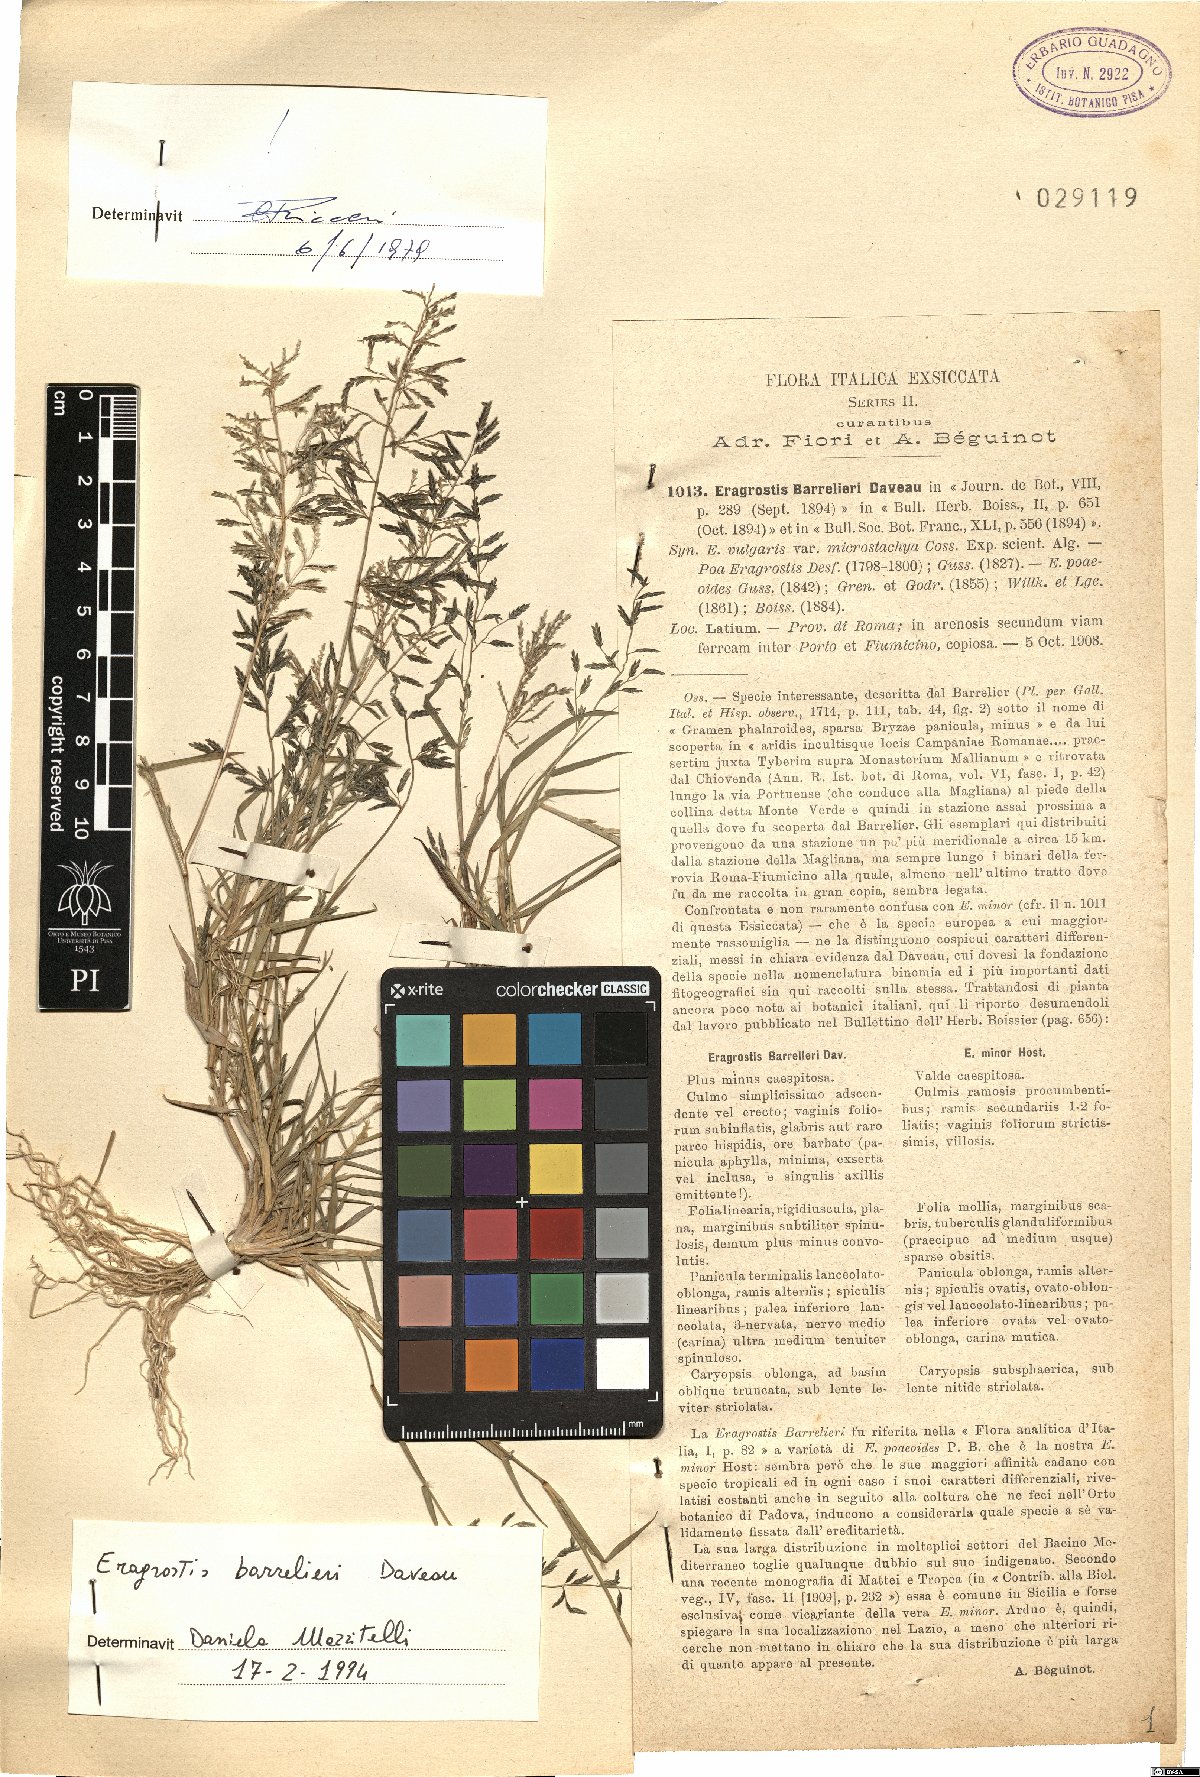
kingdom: Plantae
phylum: Tracheophyta
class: Liliopsida
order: Poales
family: Poaceae
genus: Eragrostis
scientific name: Eragrostis barrelieri
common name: Mediterranean lovegrass
